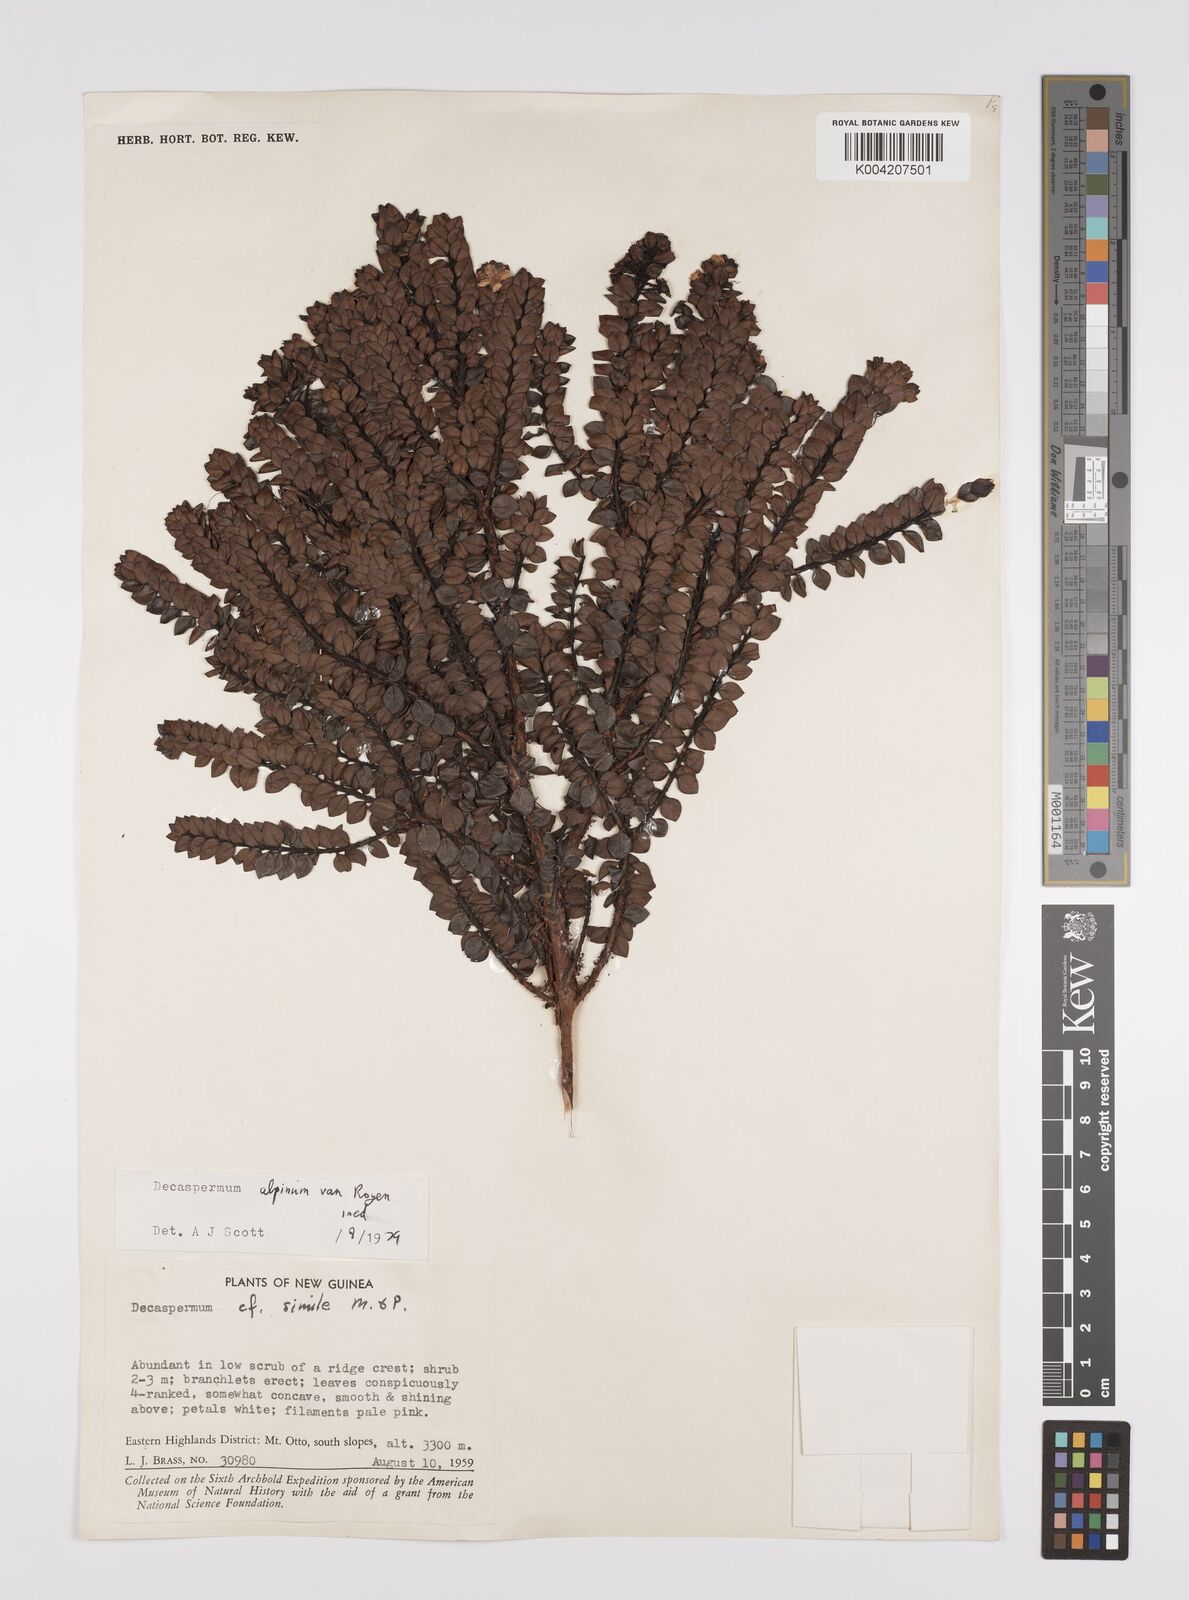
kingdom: Plantae
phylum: Tracheophyta
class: Magnoliopsida
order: Myrtales
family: Myrtaceae
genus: Decaspermum
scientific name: Decaspermum alpinum
